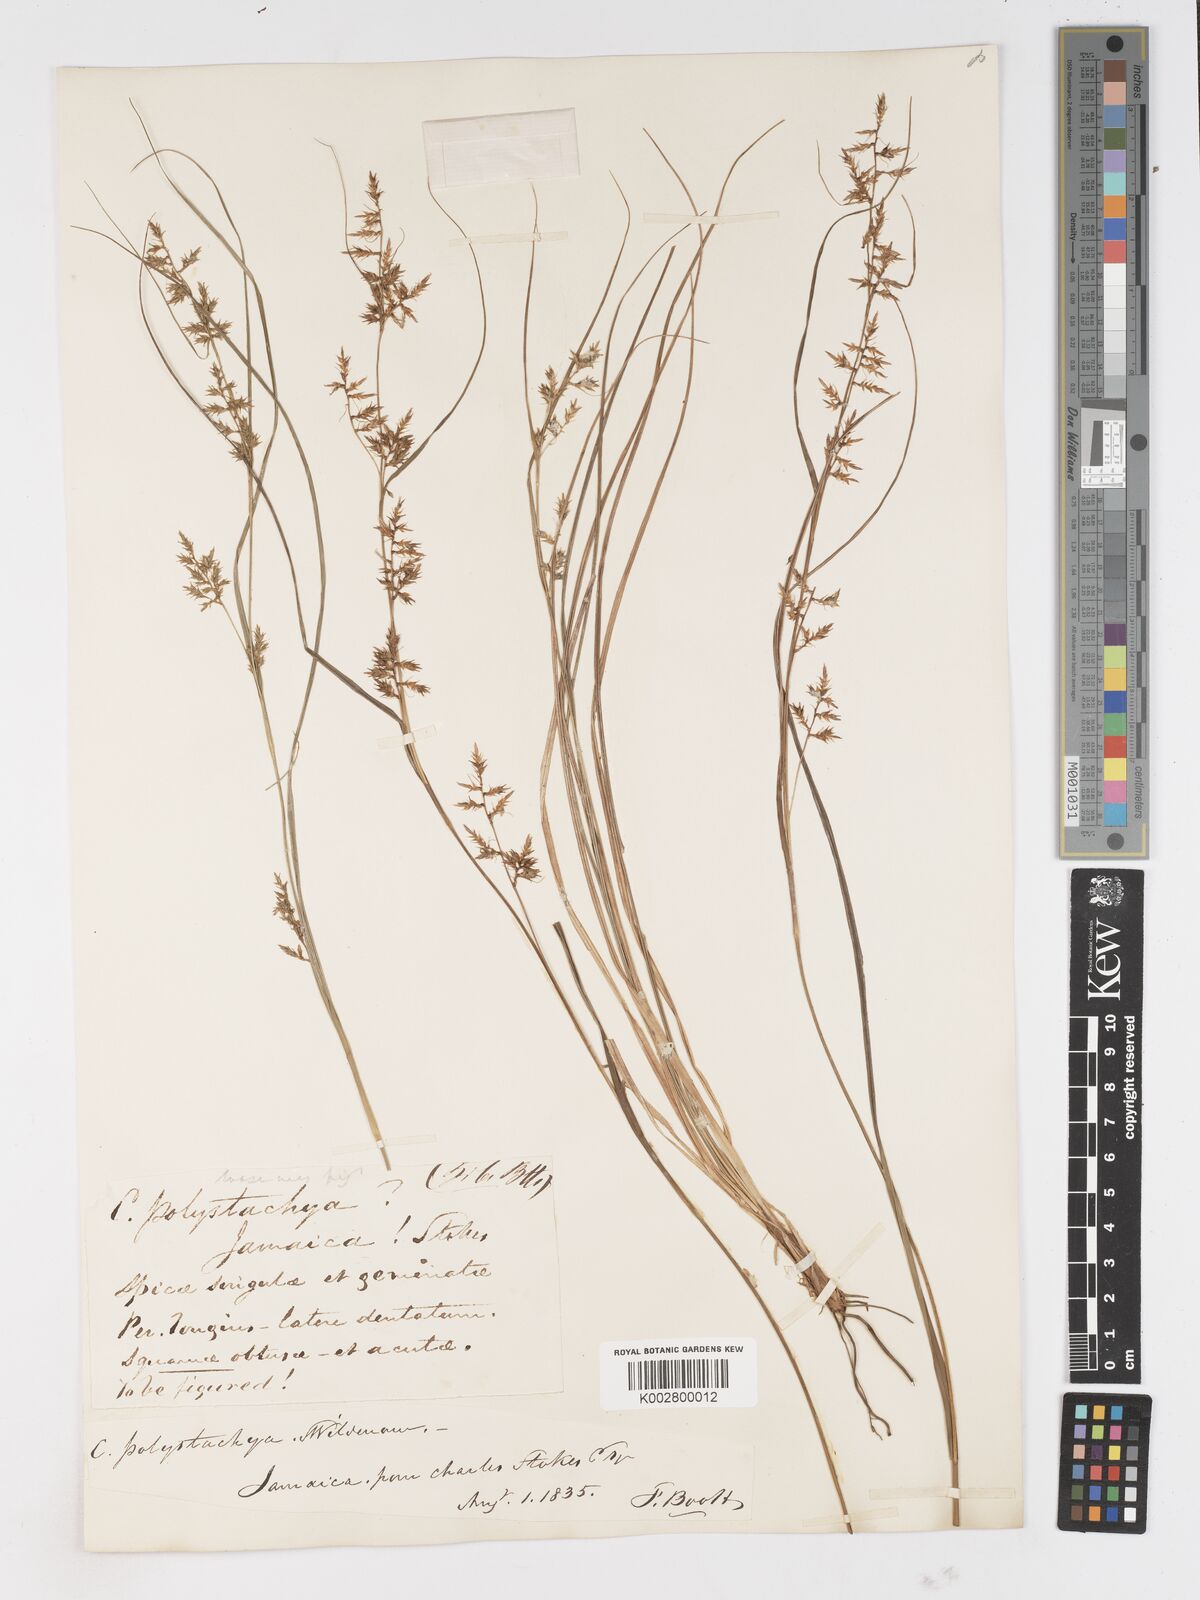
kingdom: Plantae
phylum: Tracheophyta
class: Liliopsida
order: Poales
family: Cyperaceae
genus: Carex
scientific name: Carex polystachya
